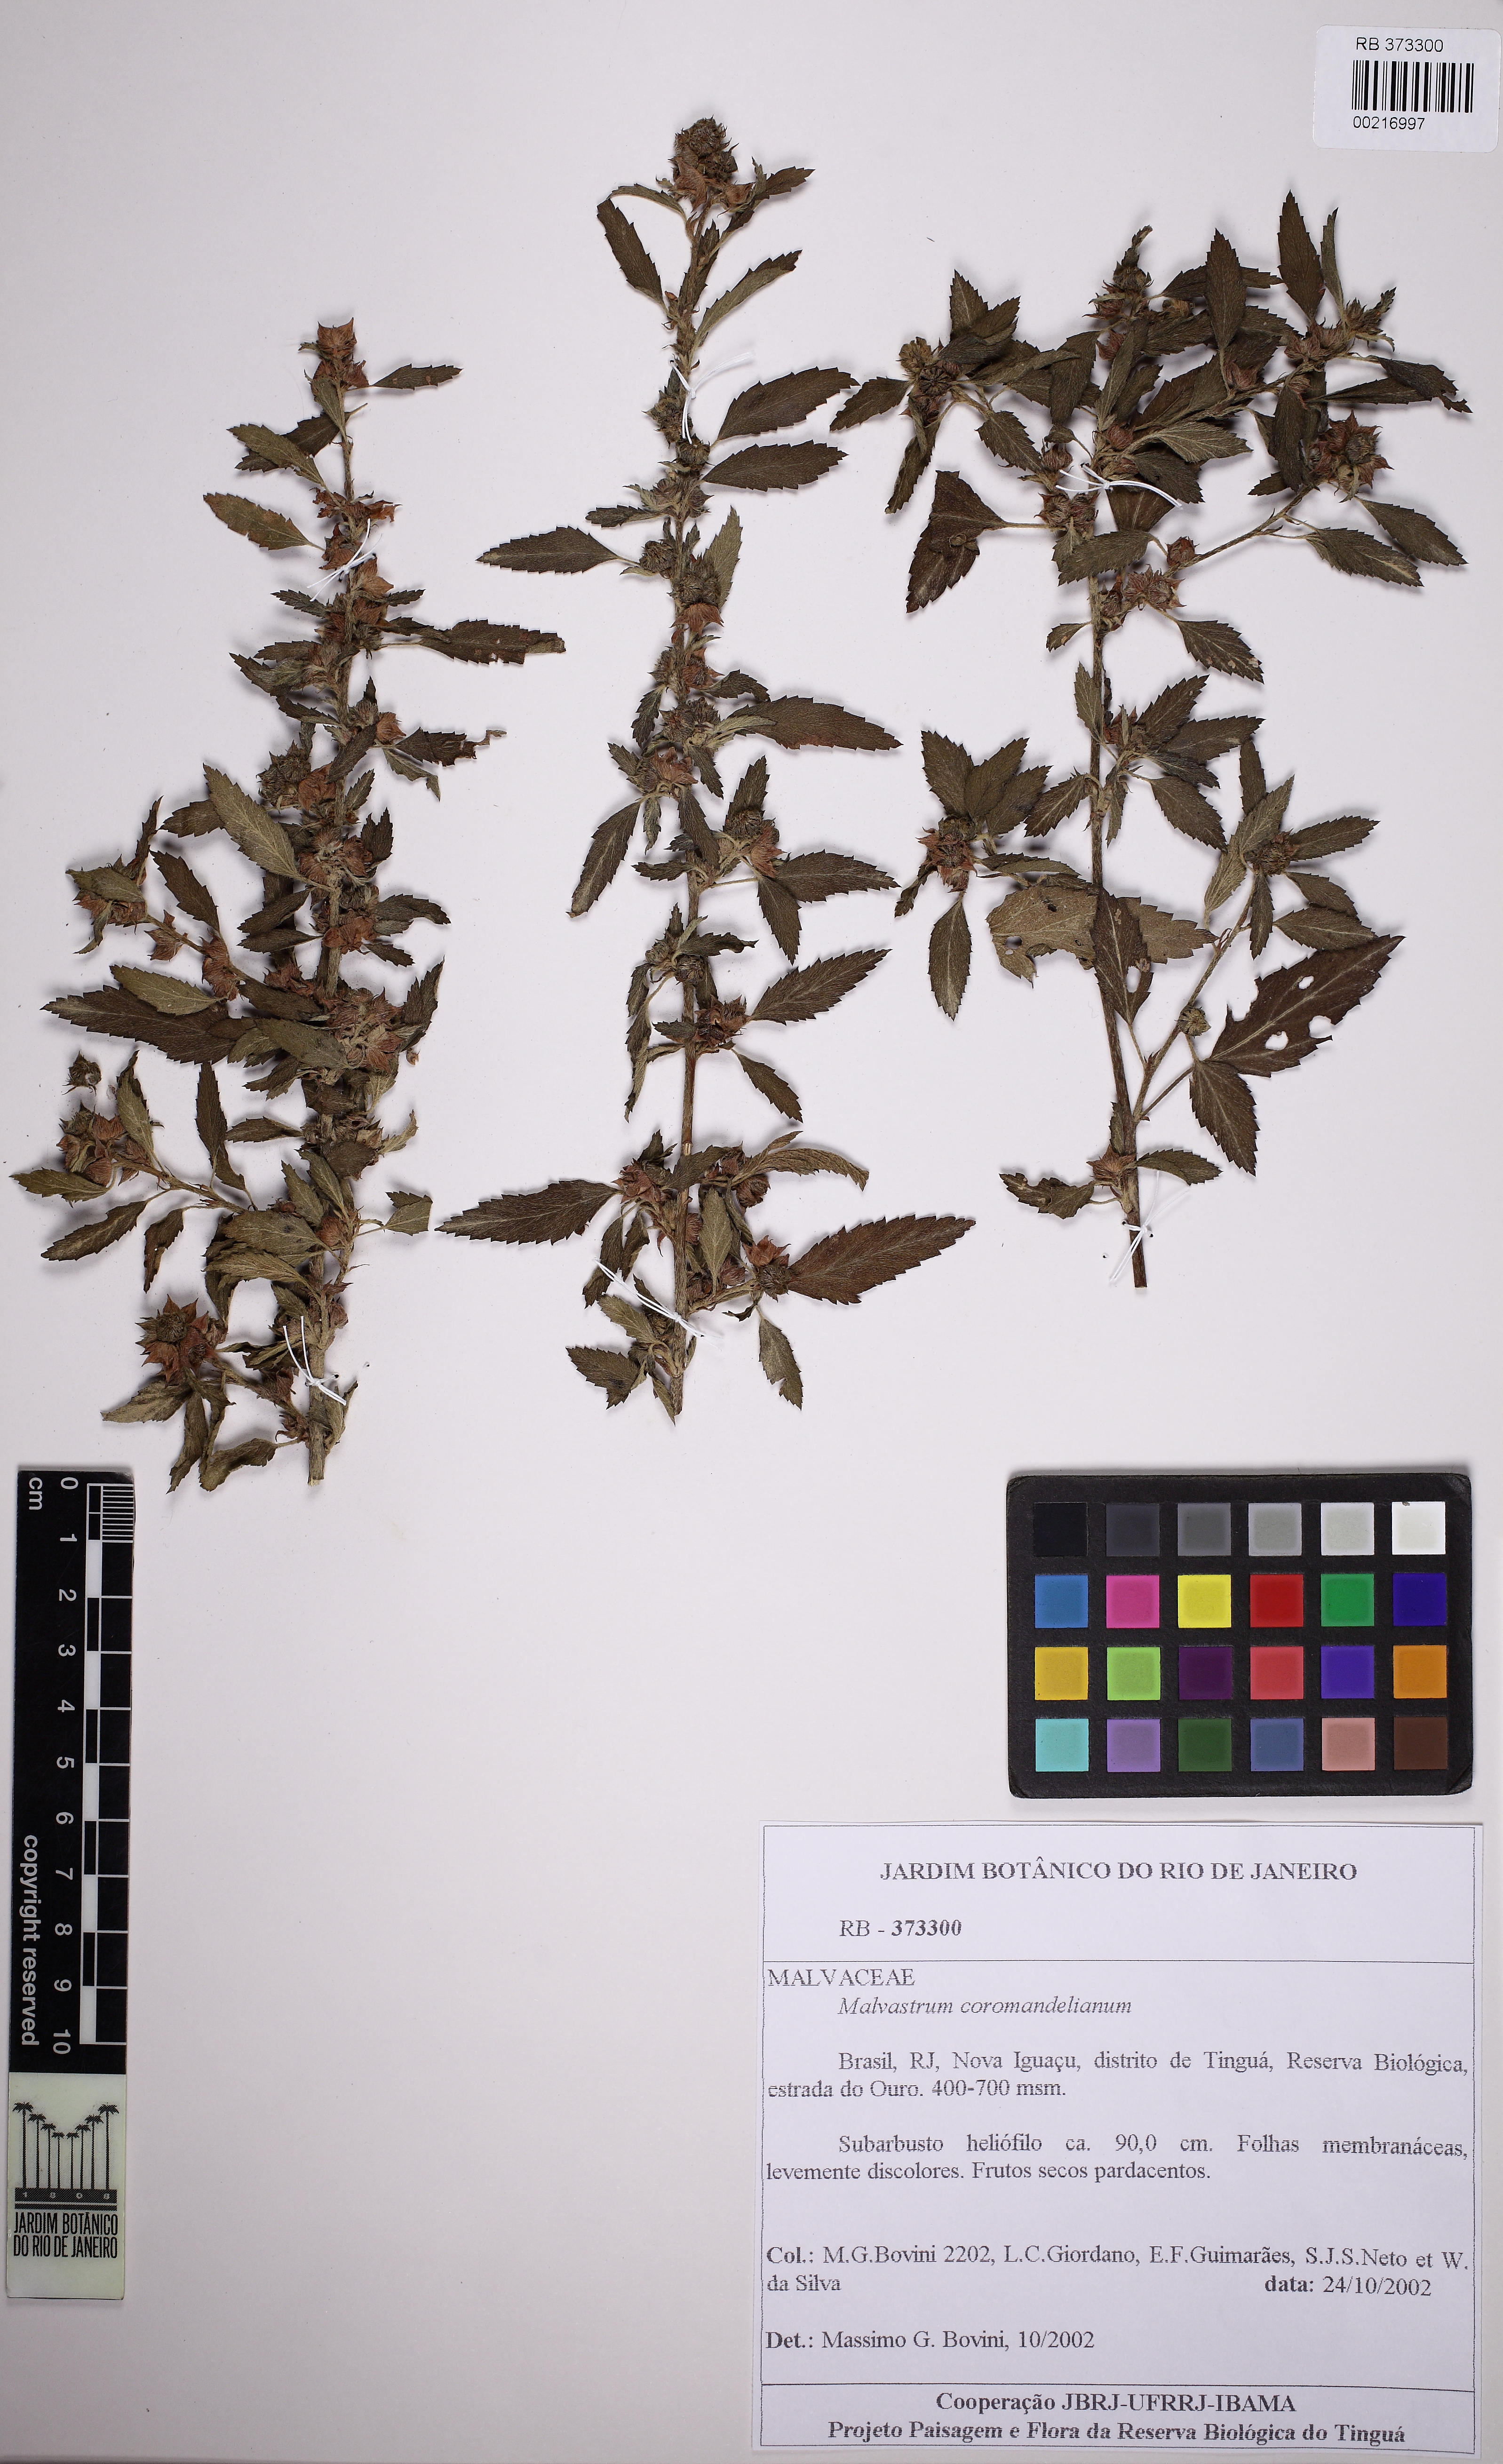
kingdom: Plantae
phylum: Tracheophyta
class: Magnoliopsida
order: Malvales
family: Malvaceae
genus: Malvastrum
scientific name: Malvastrum coromandelianum
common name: Threelobe false mallow
